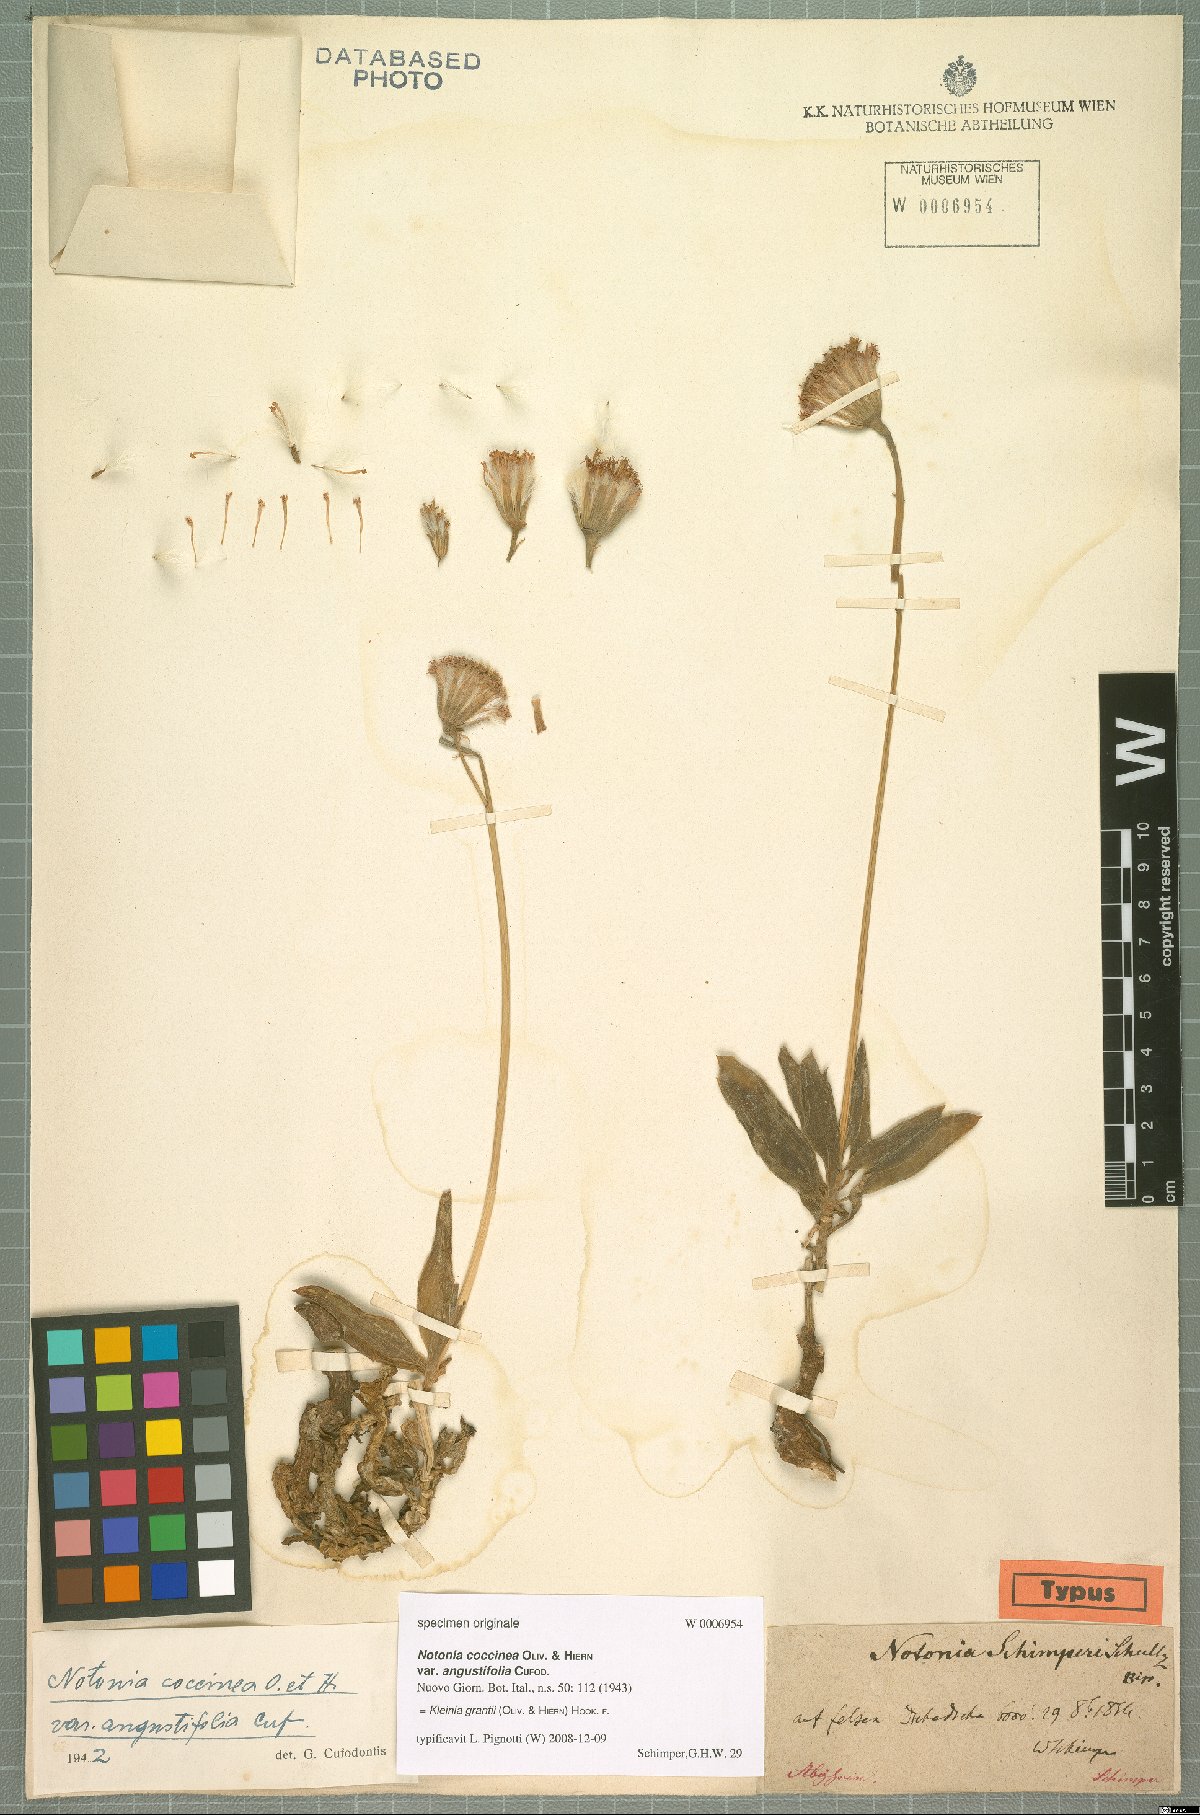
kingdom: Plantae
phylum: Tracheophyta
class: Magnoliopsida
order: Asterales
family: Asteraceae
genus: Kleinia
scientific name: Kleinia grantii
